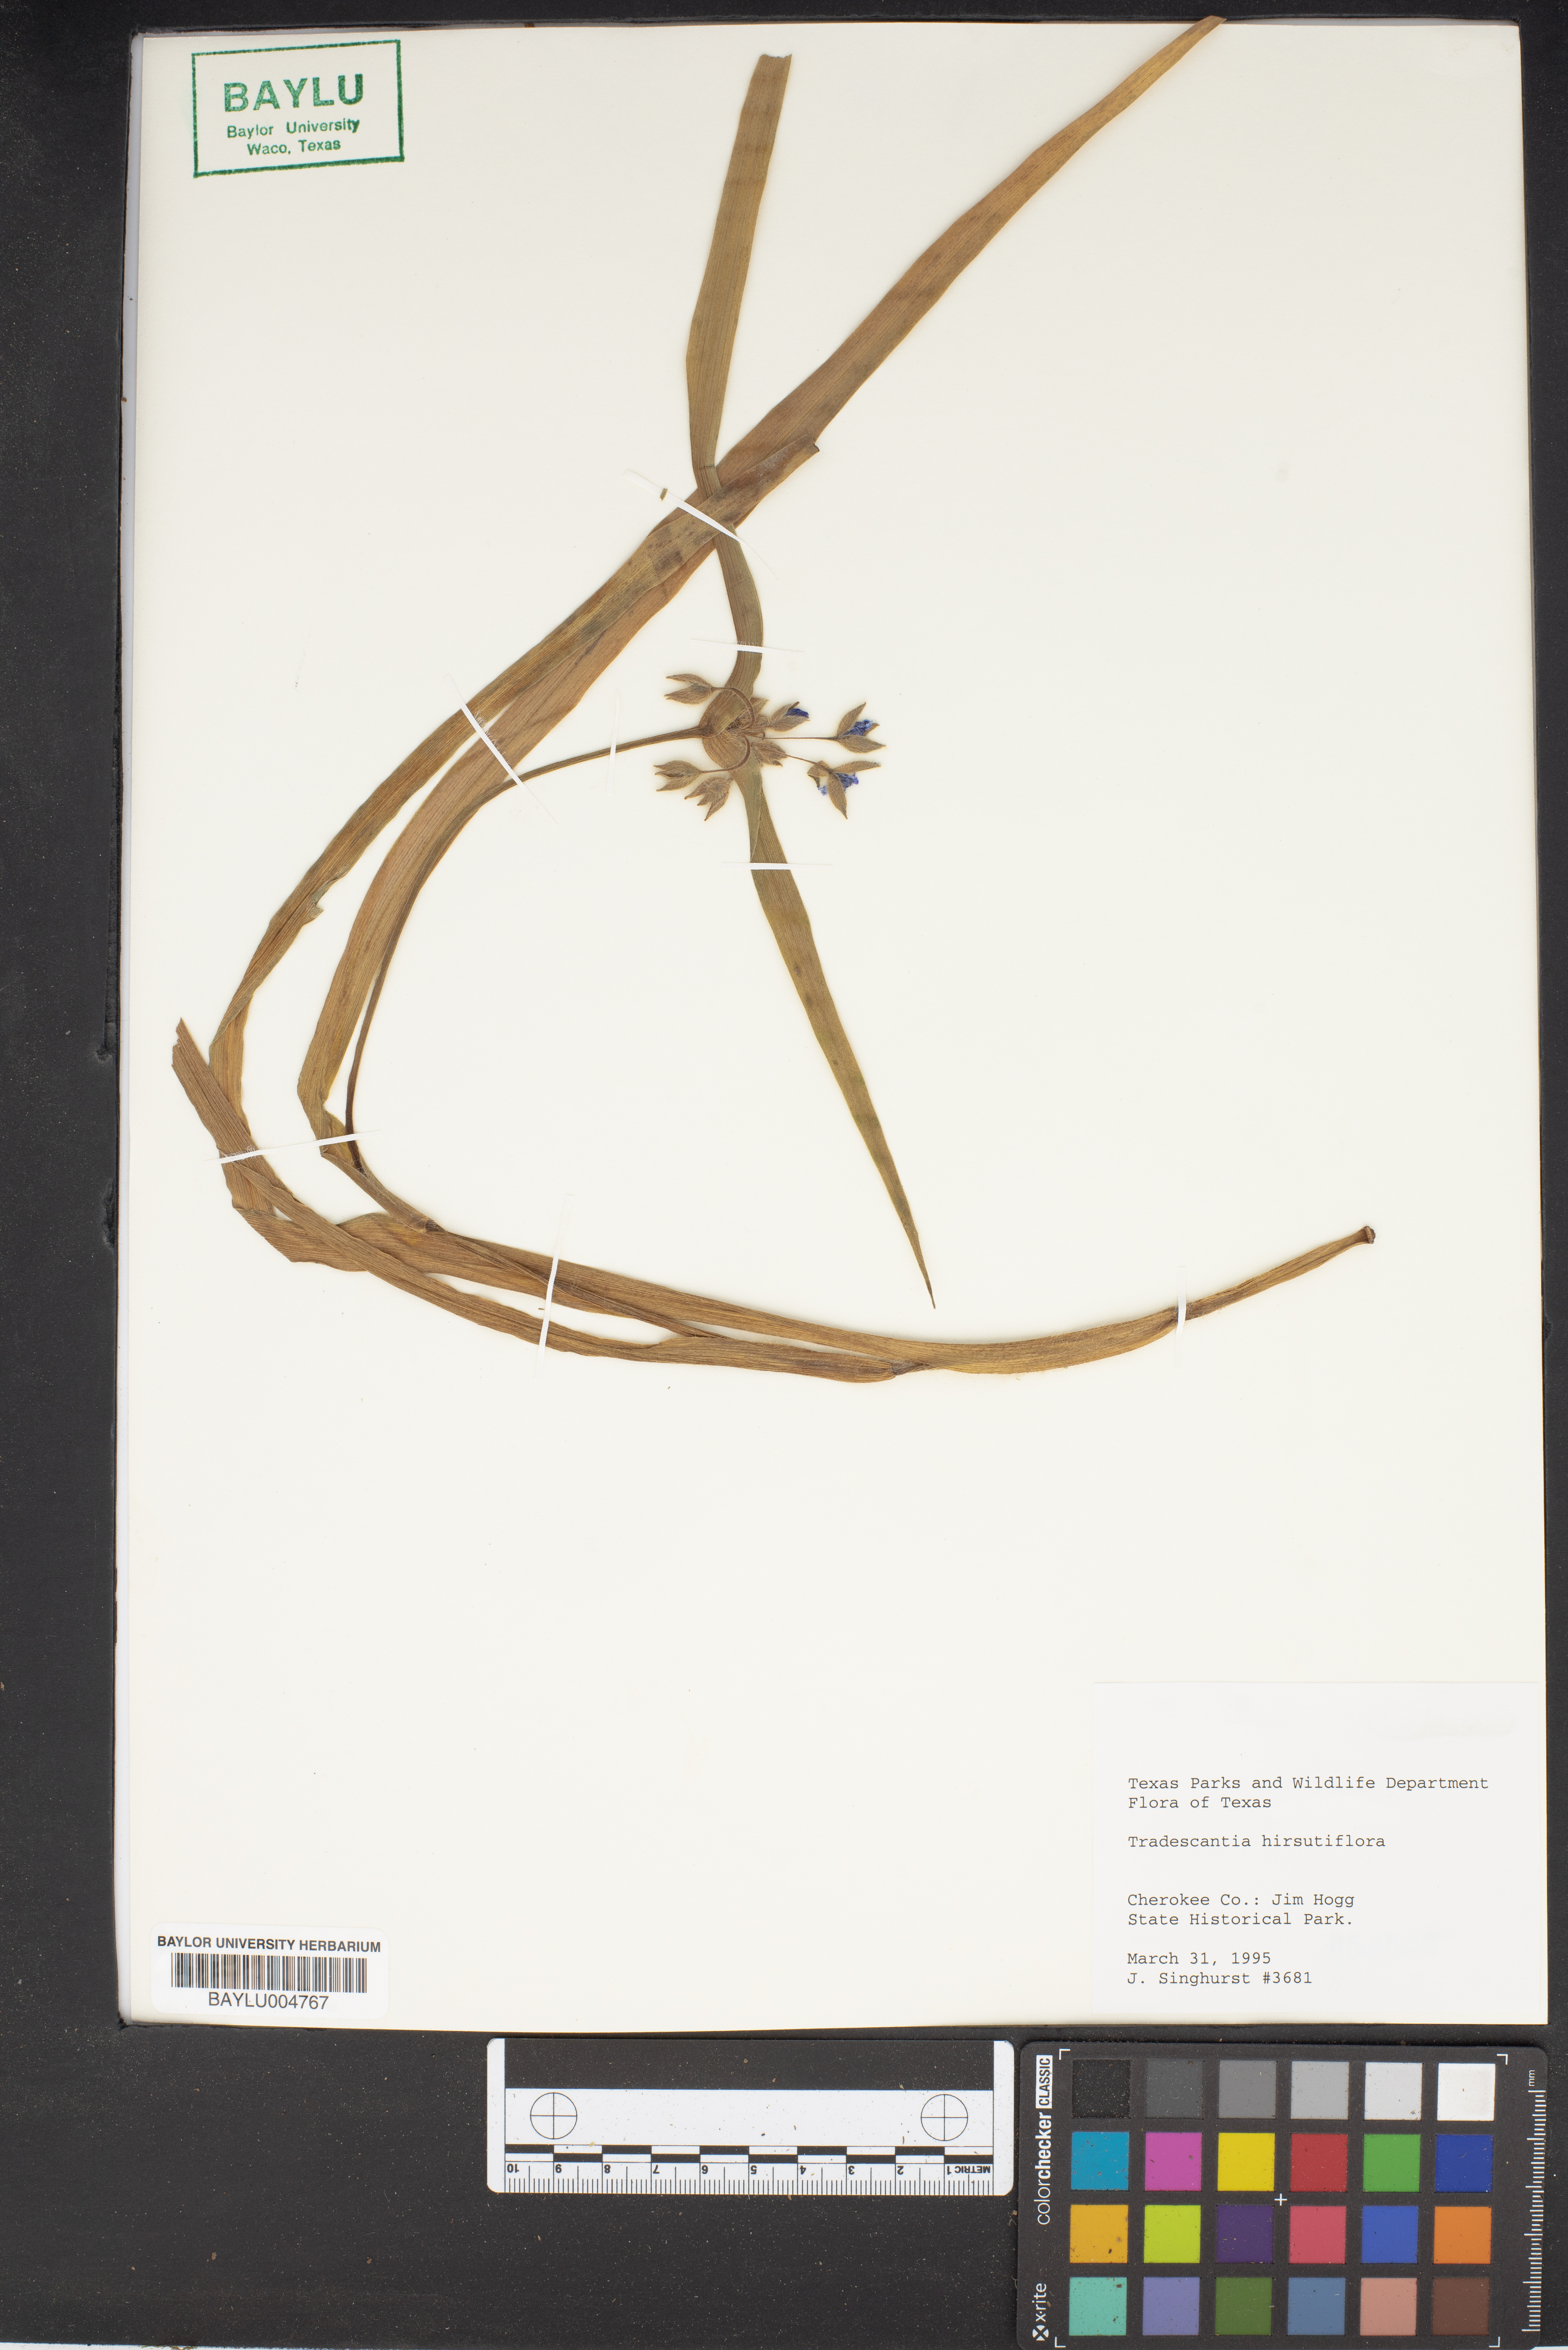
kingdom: Plantae
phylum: Tracheophyta
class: Liliopsida
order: Commelinales
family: Commelinaceae
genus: Tradescantia
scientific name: Tradescantia hirsutiflora
